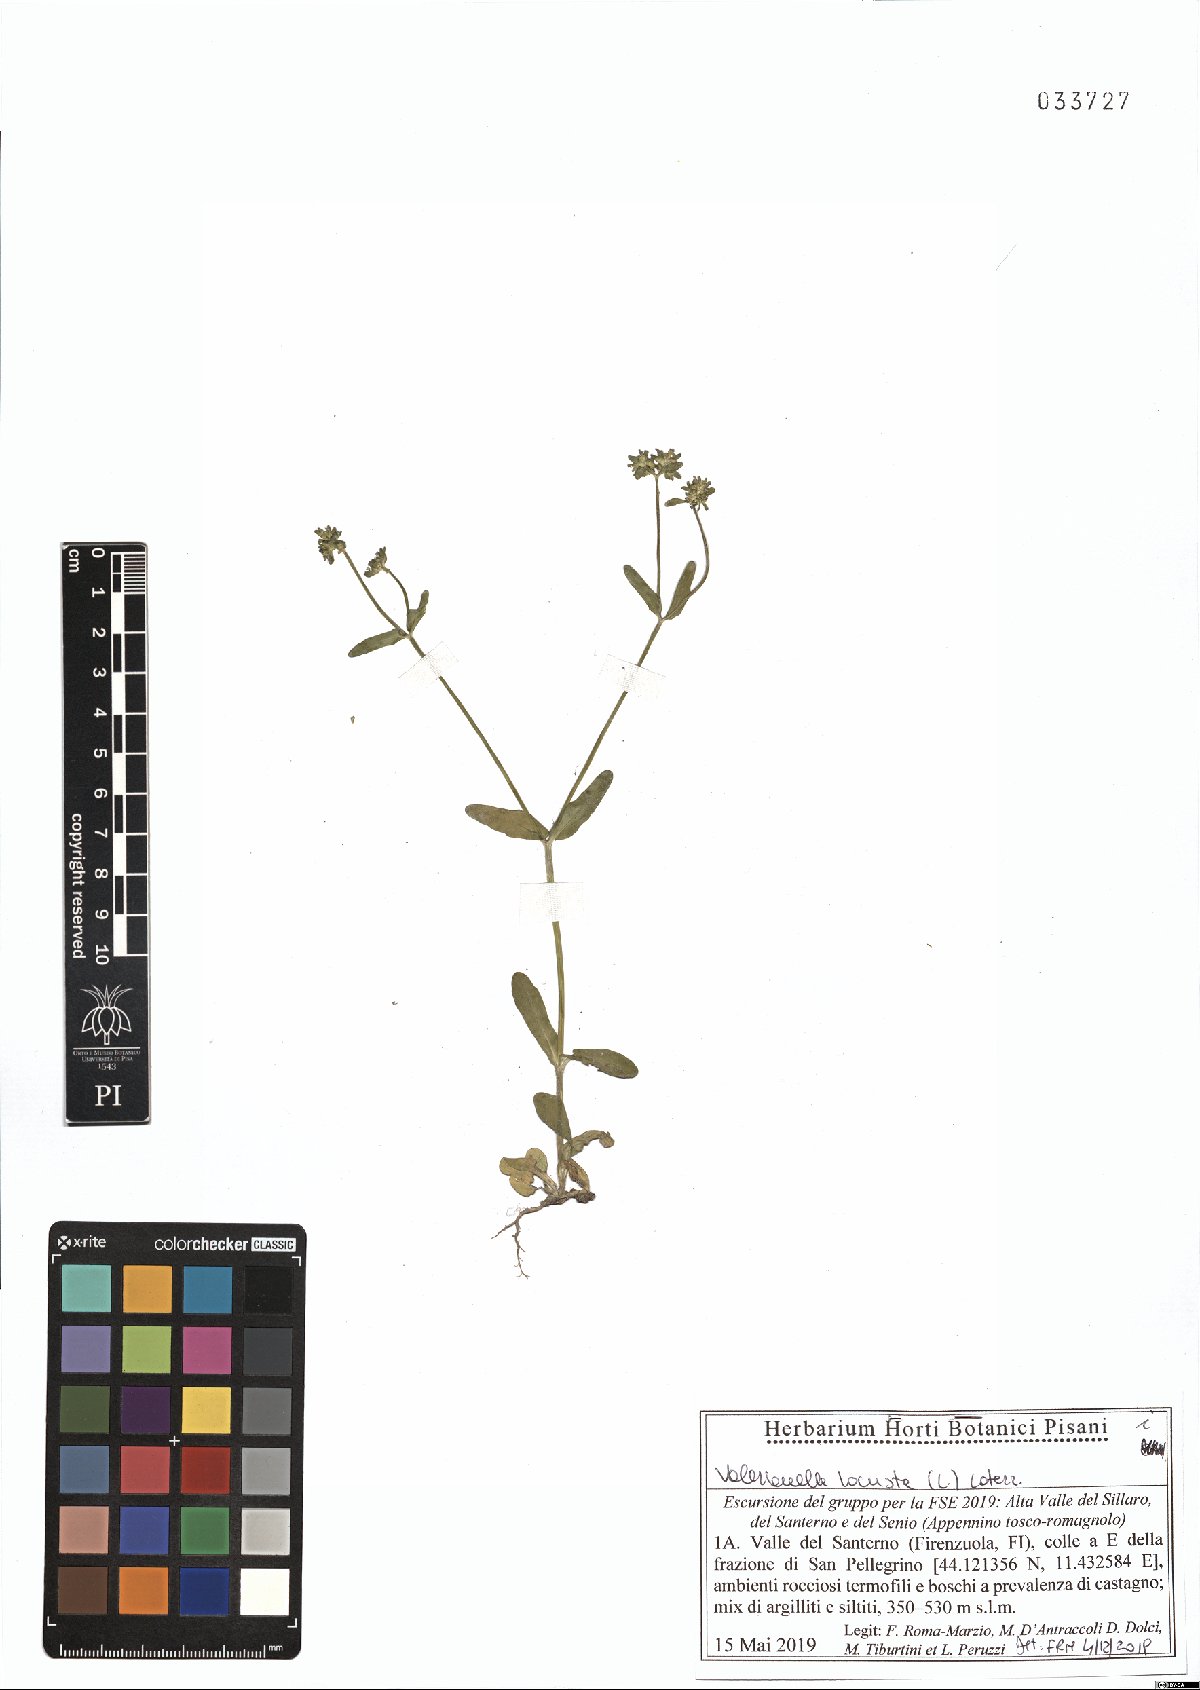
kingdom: Plantae
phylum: Tracheophyta
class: Magnoliopsida
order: Dipsacales
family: Caprifoliaceae
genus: Valerianella
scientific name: Valerianella locusta
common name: Common cornsalad
